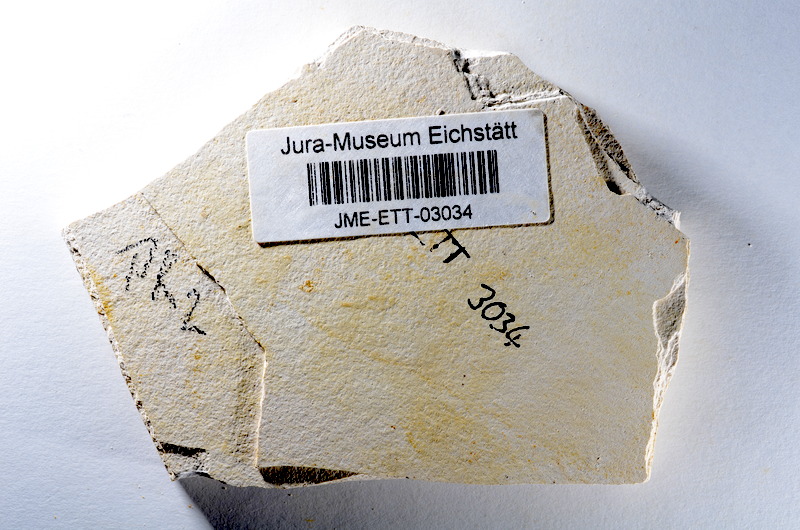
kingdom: Animalia
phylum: Chordata
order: Salmoniformes
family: Orthogonikleithridae
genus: Orthogonikleithrus
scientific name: Orthogonikleithrus hoelli
